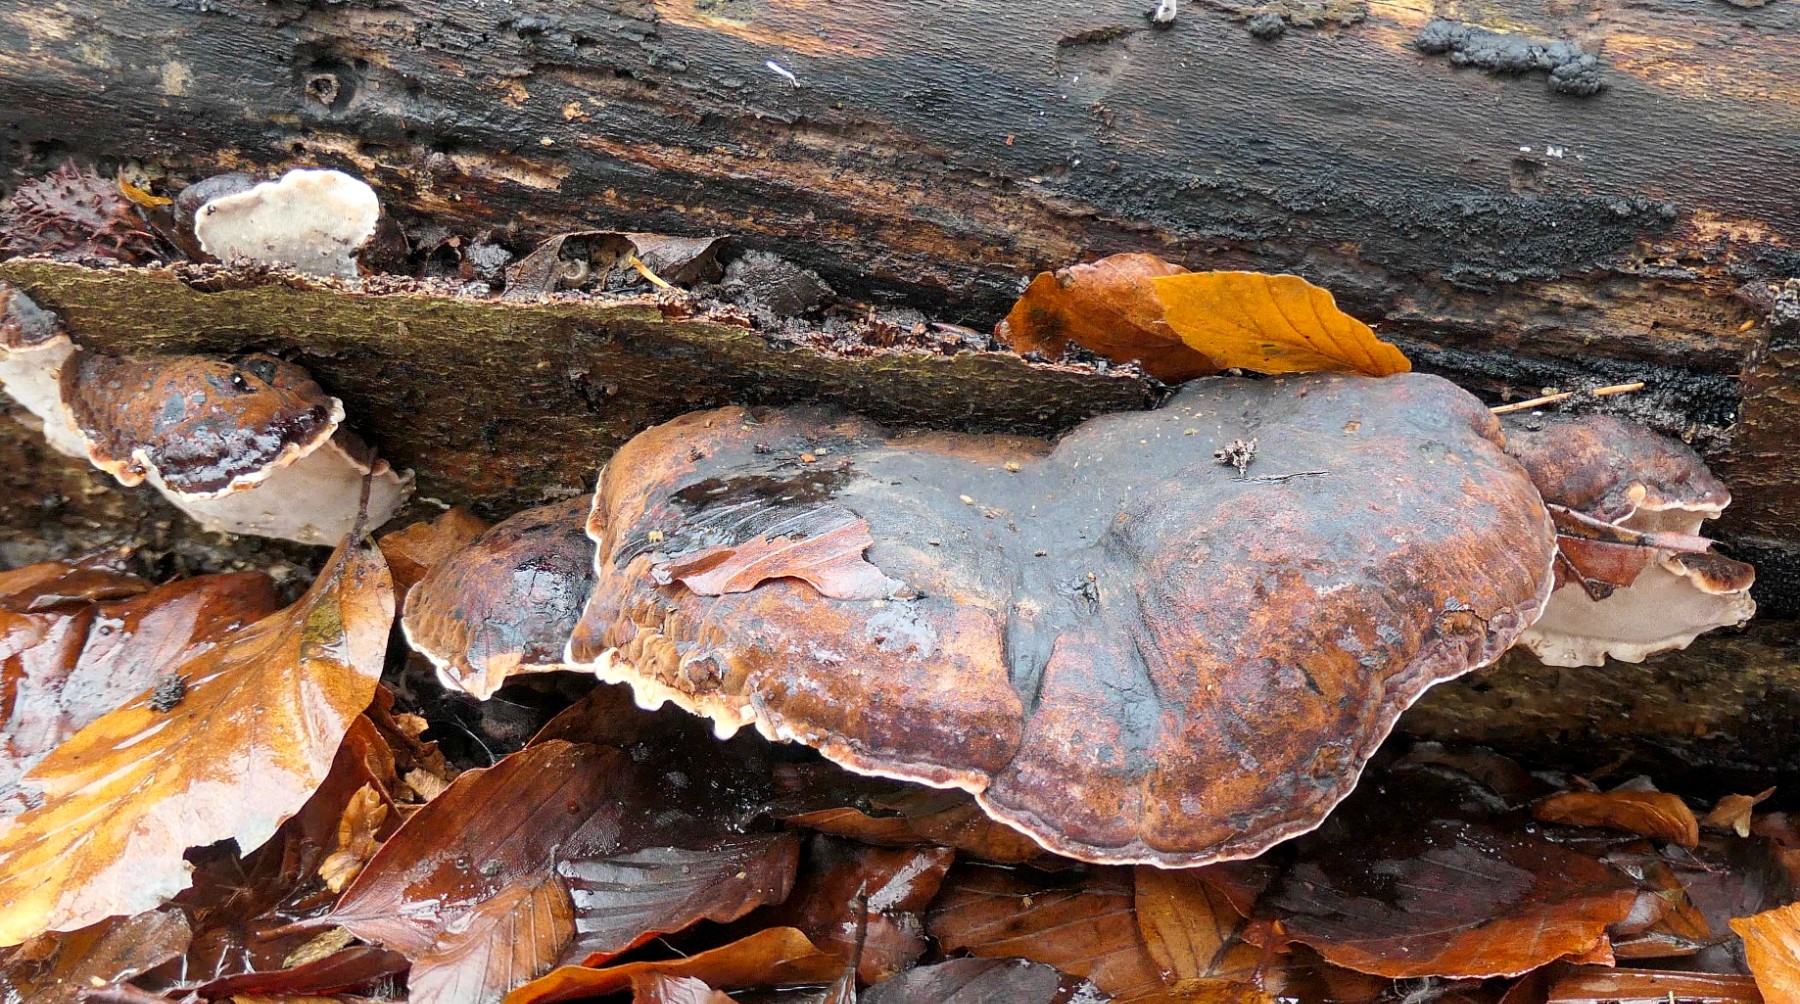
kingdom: Fungi
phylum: Basidiomycota
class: Agaricomycetes
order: Polyporales
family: Ischnodermataceae
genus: Ischnoderma
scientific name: Ischnoderma resinosum
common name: løv-tjæreporesvamp
